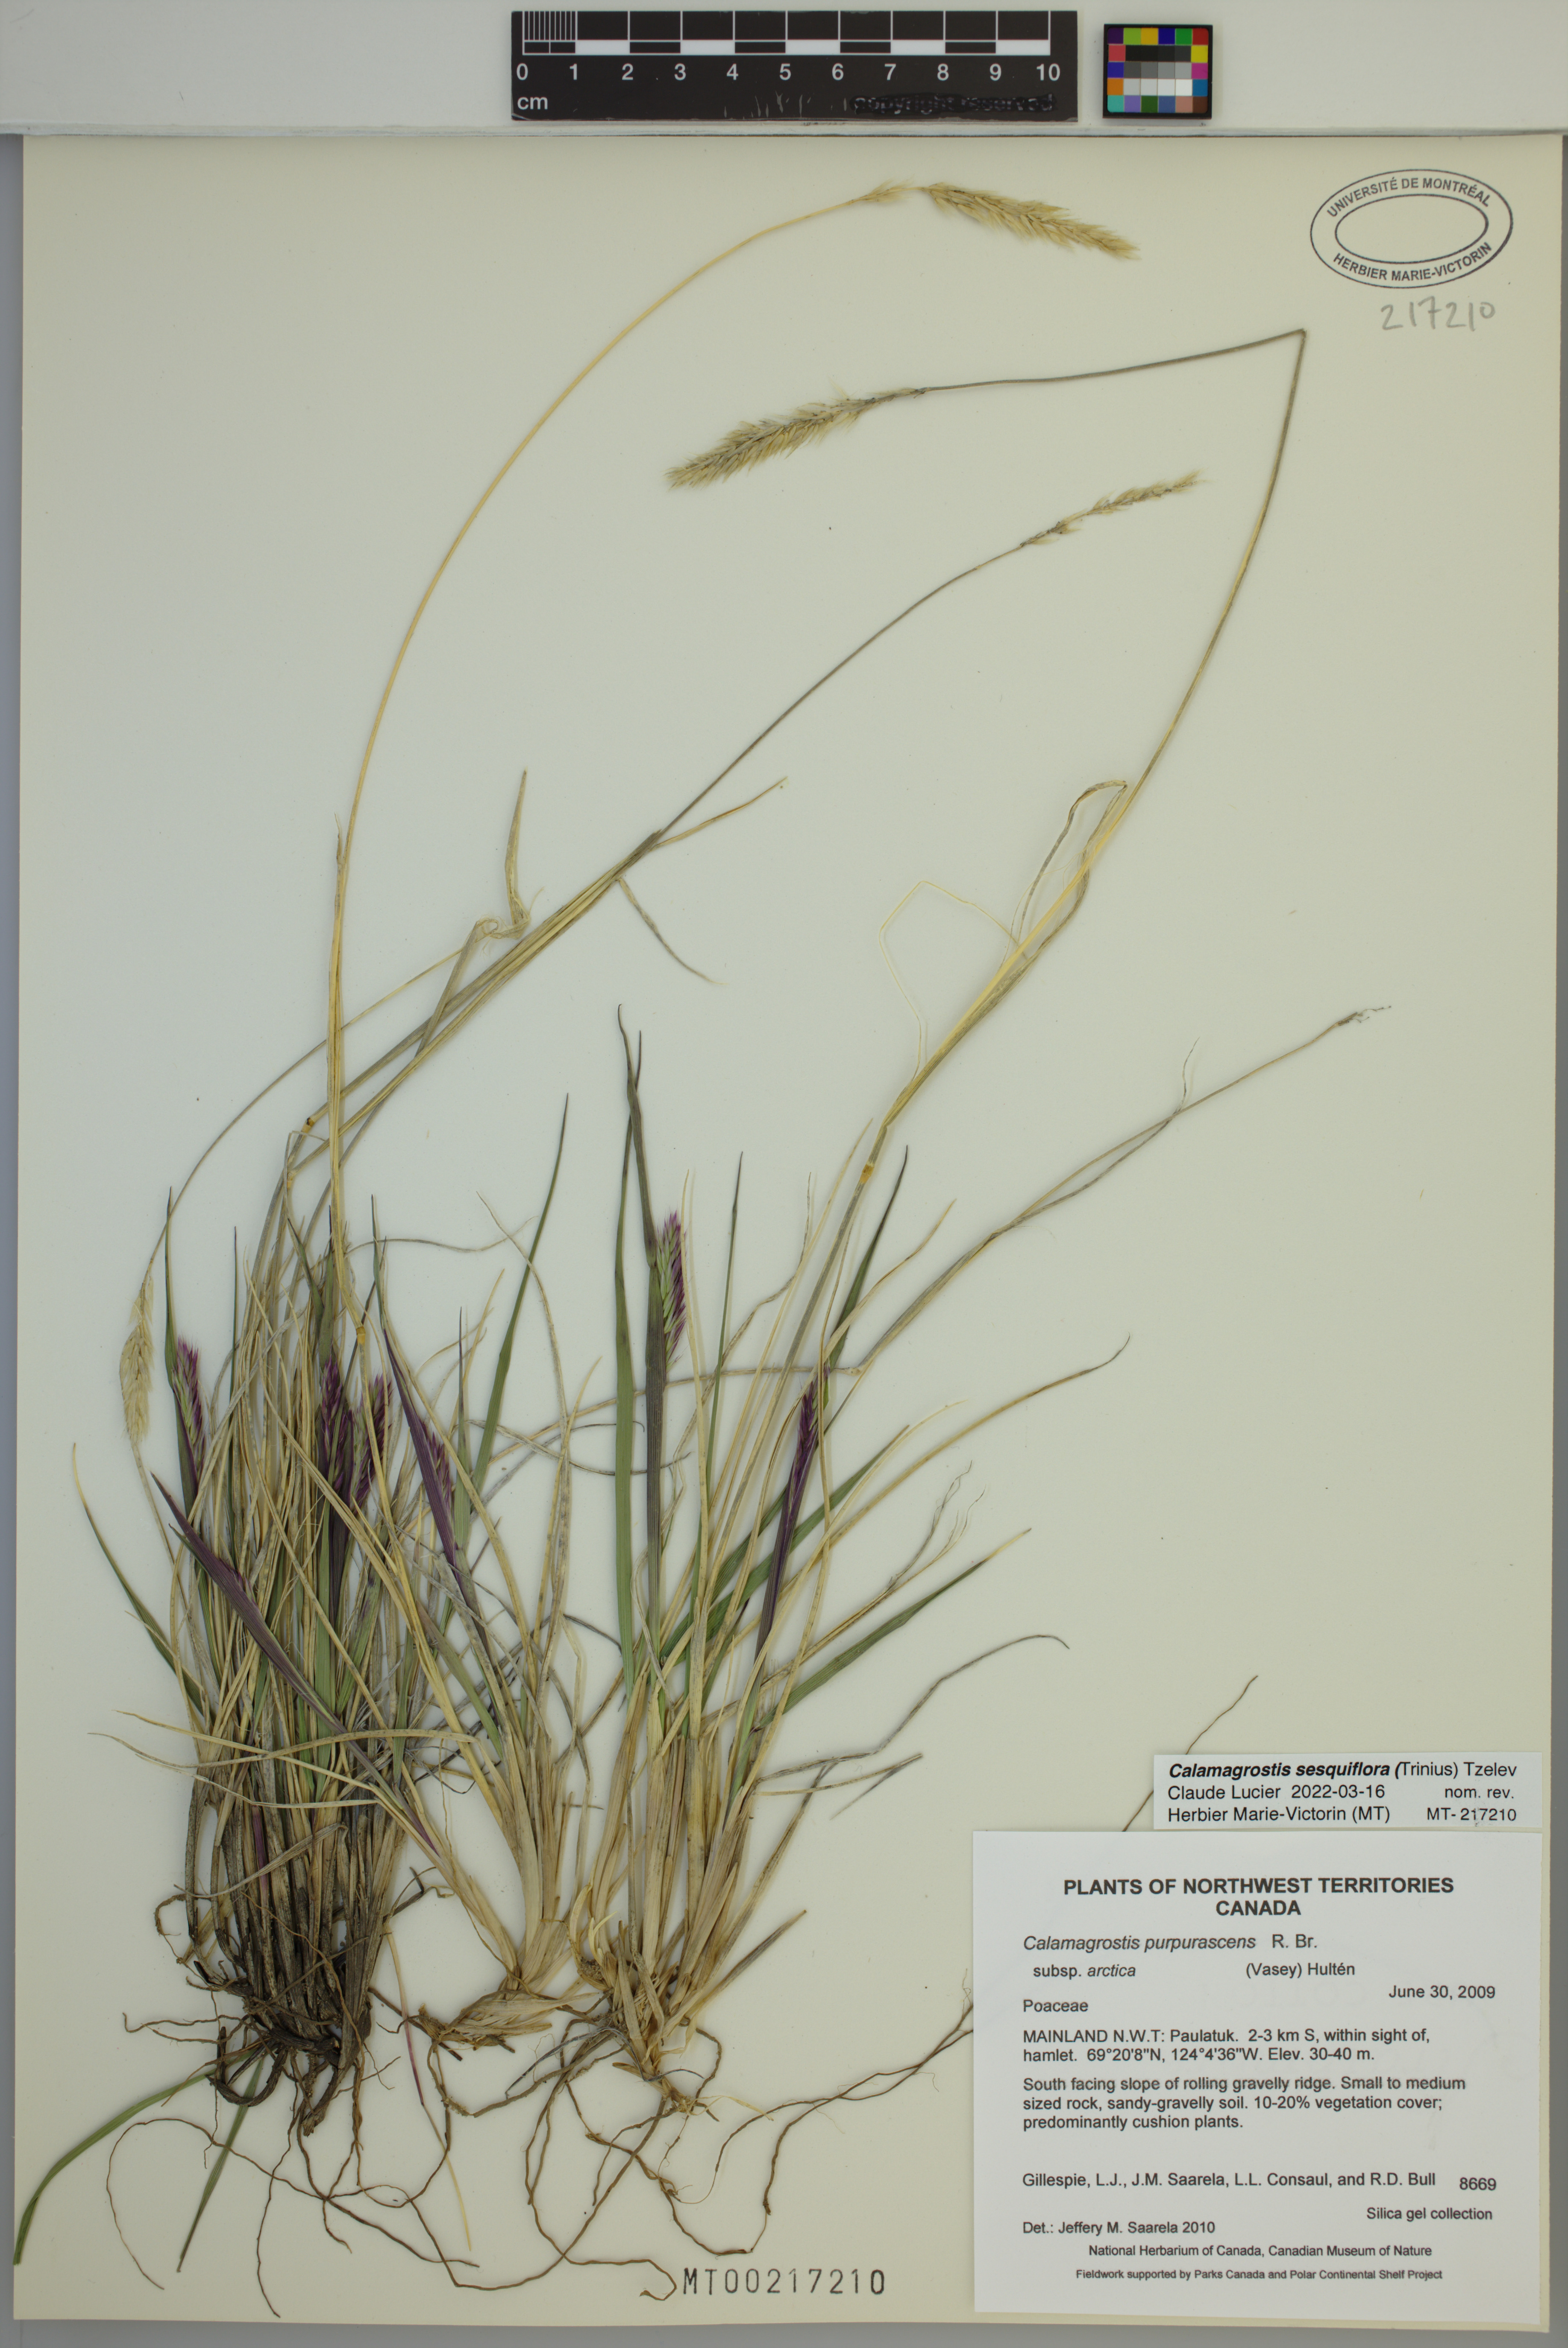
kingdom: Plantae
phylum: Tracheophyta
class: Liliopsida
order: Poales
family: Poaceae
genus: Calamagrostis
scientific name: Calamagrostis sesquiflora
